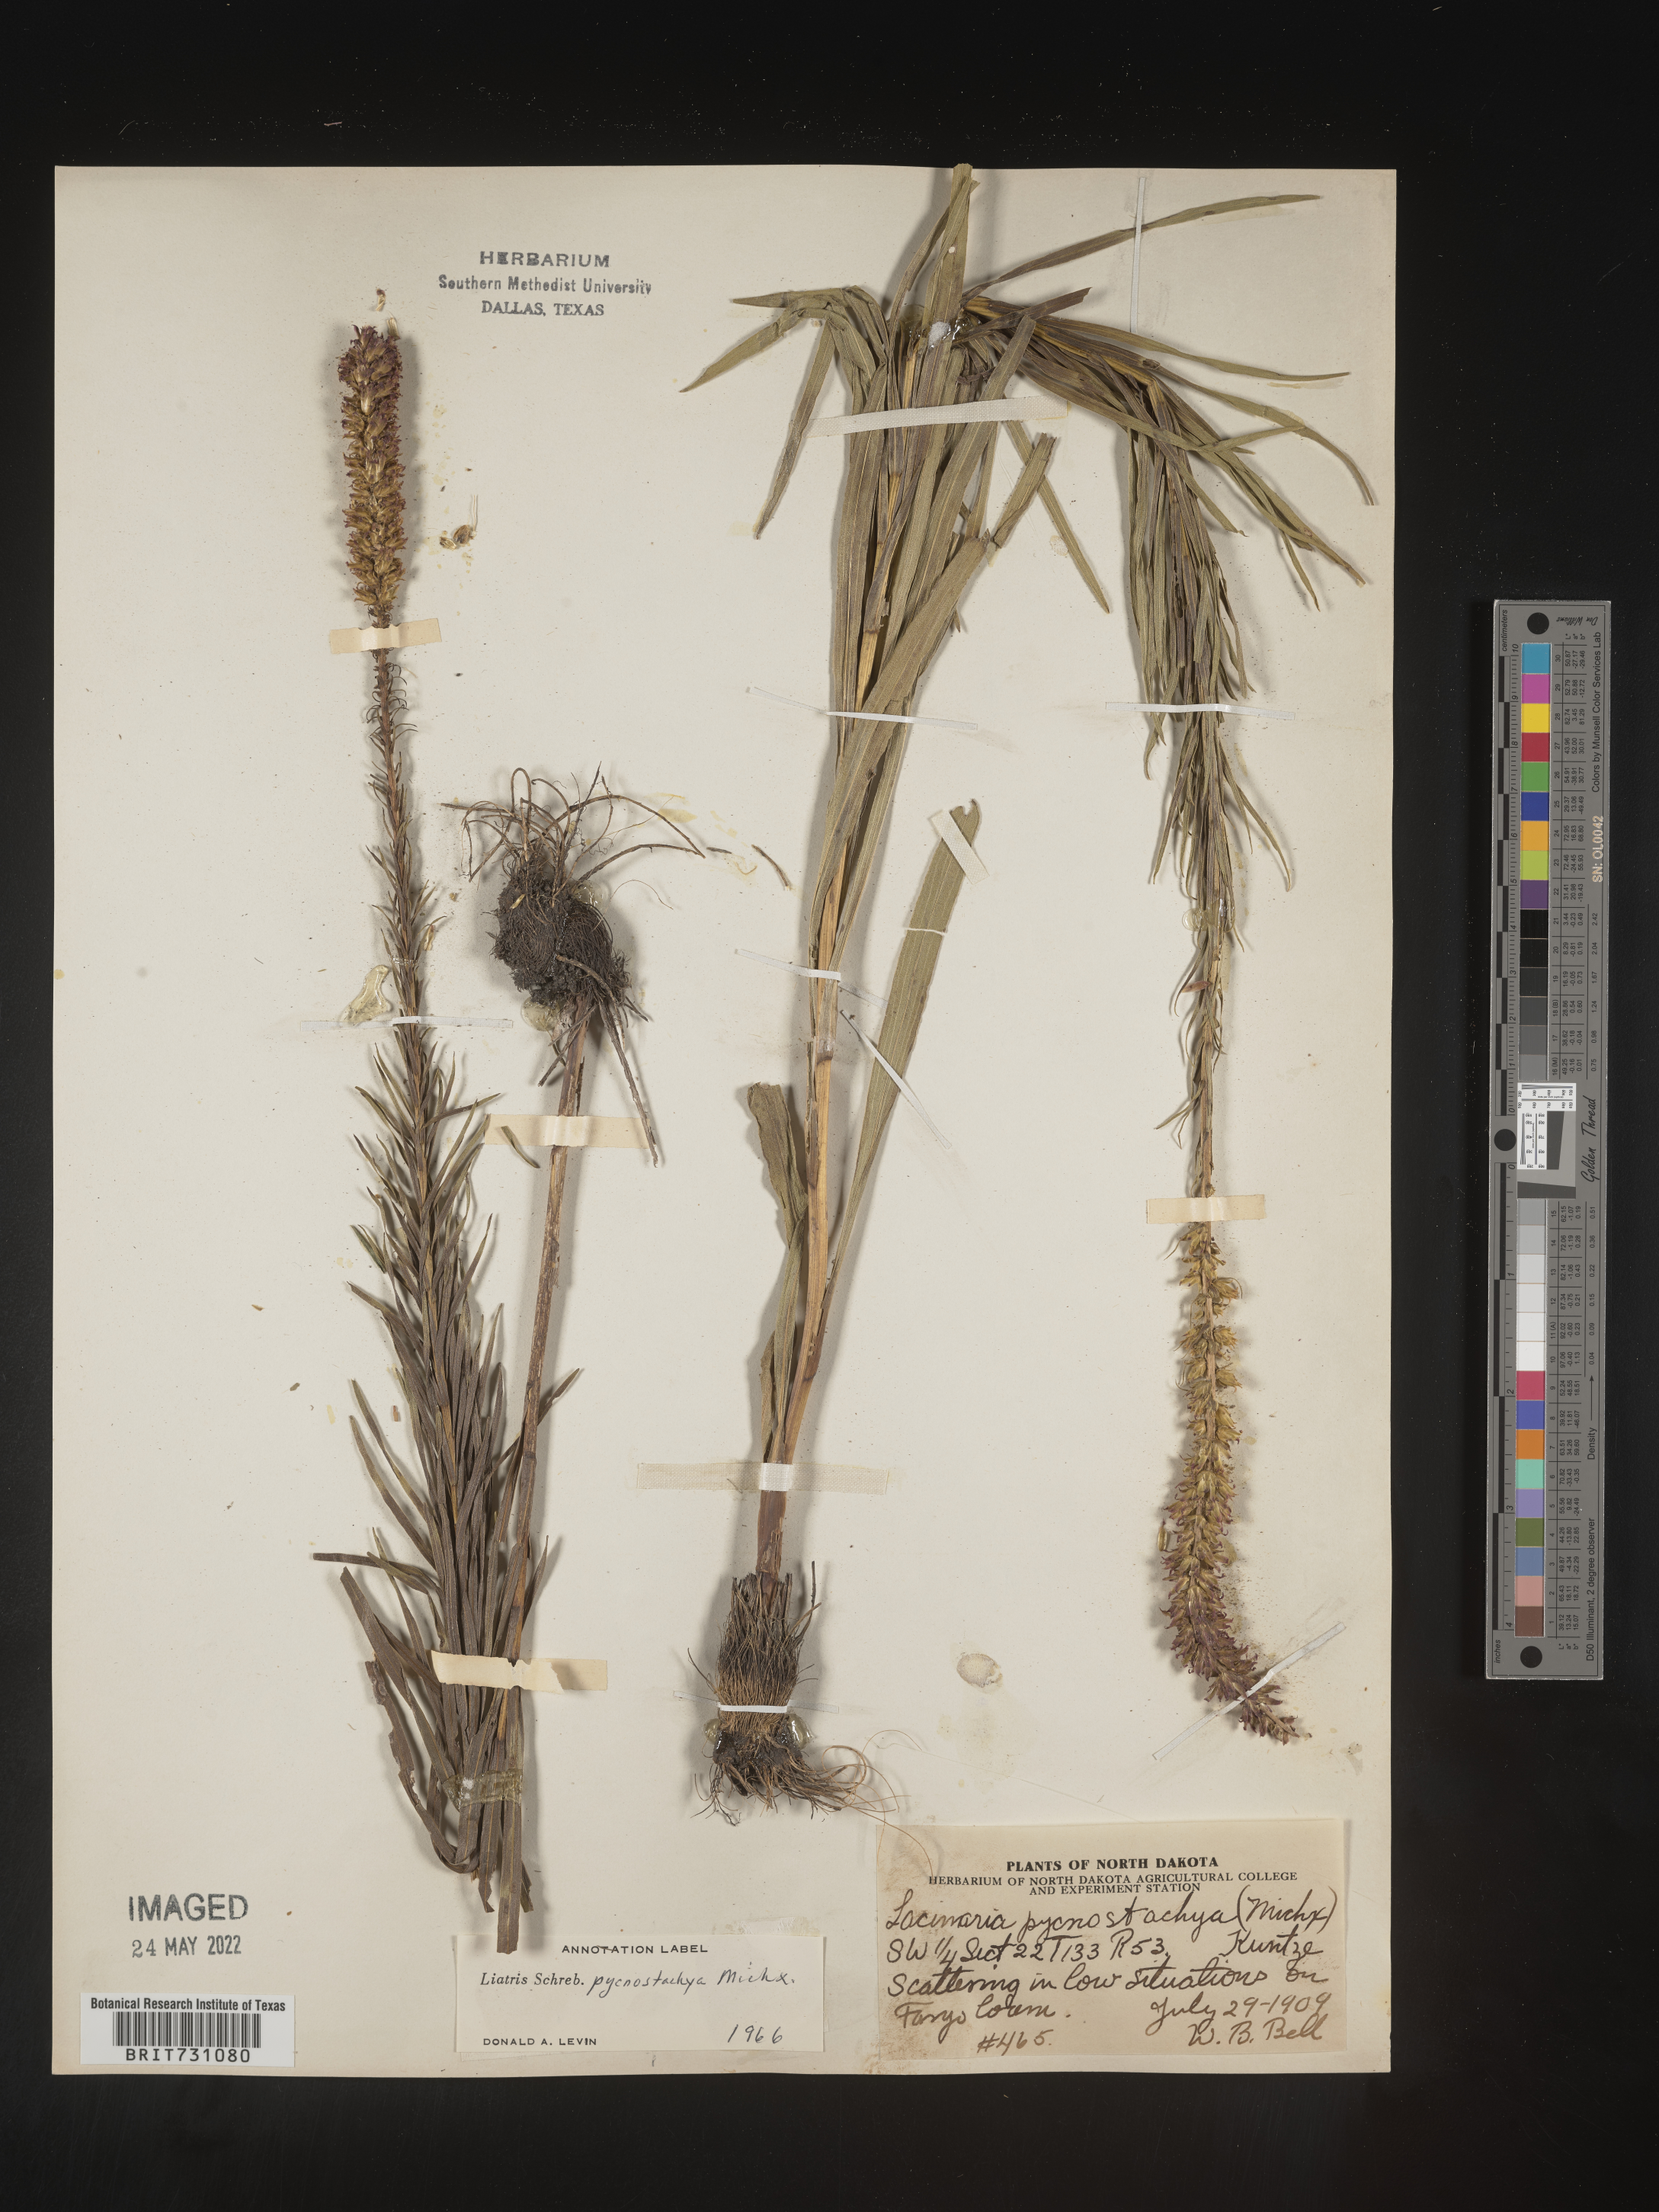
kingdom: Plantae
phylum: Tracheophyta
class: Magnoliopsida
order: Asterales
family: Asteraceae
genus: Liatris
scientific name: Liatris pycnostachya
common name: Cattail gayfeather
